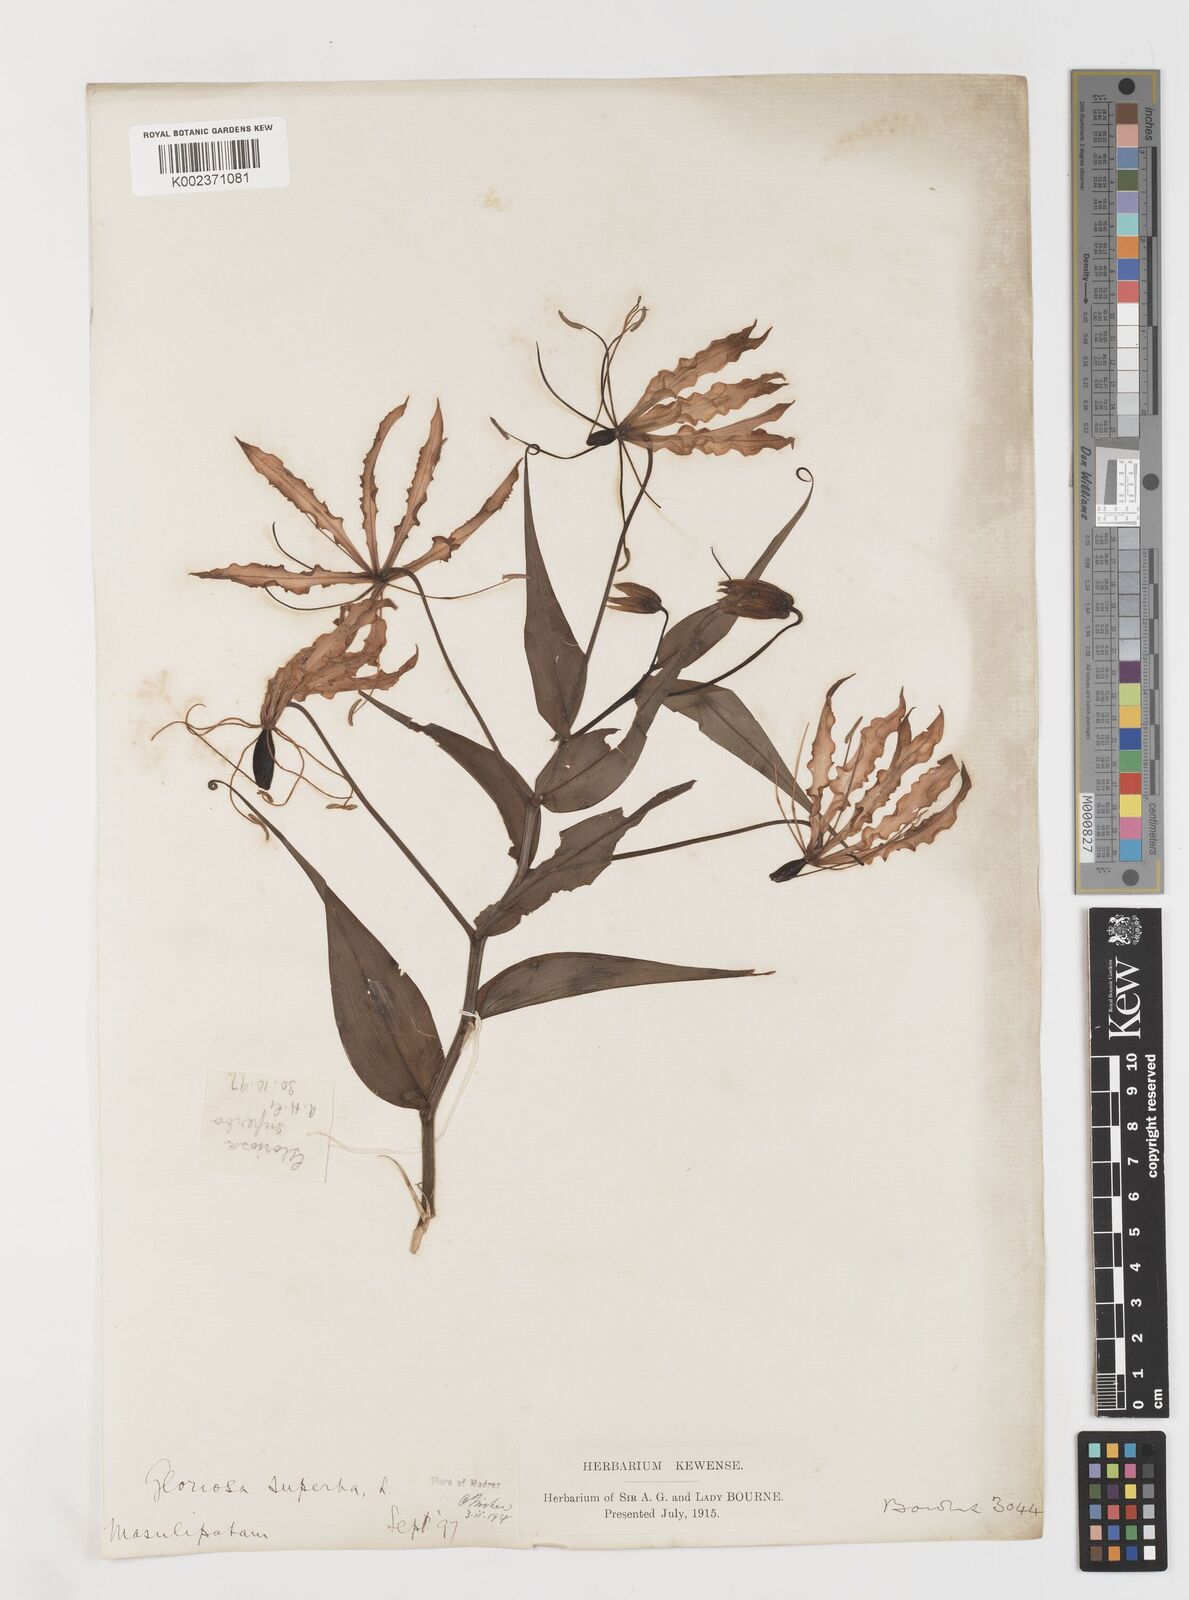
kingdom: Plantae
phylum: Tracheophyta
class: Liliopsida
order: Liliales
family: Colchicaceae
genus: Gloriosa
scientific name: Gloriosa superba
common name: Flame lily
